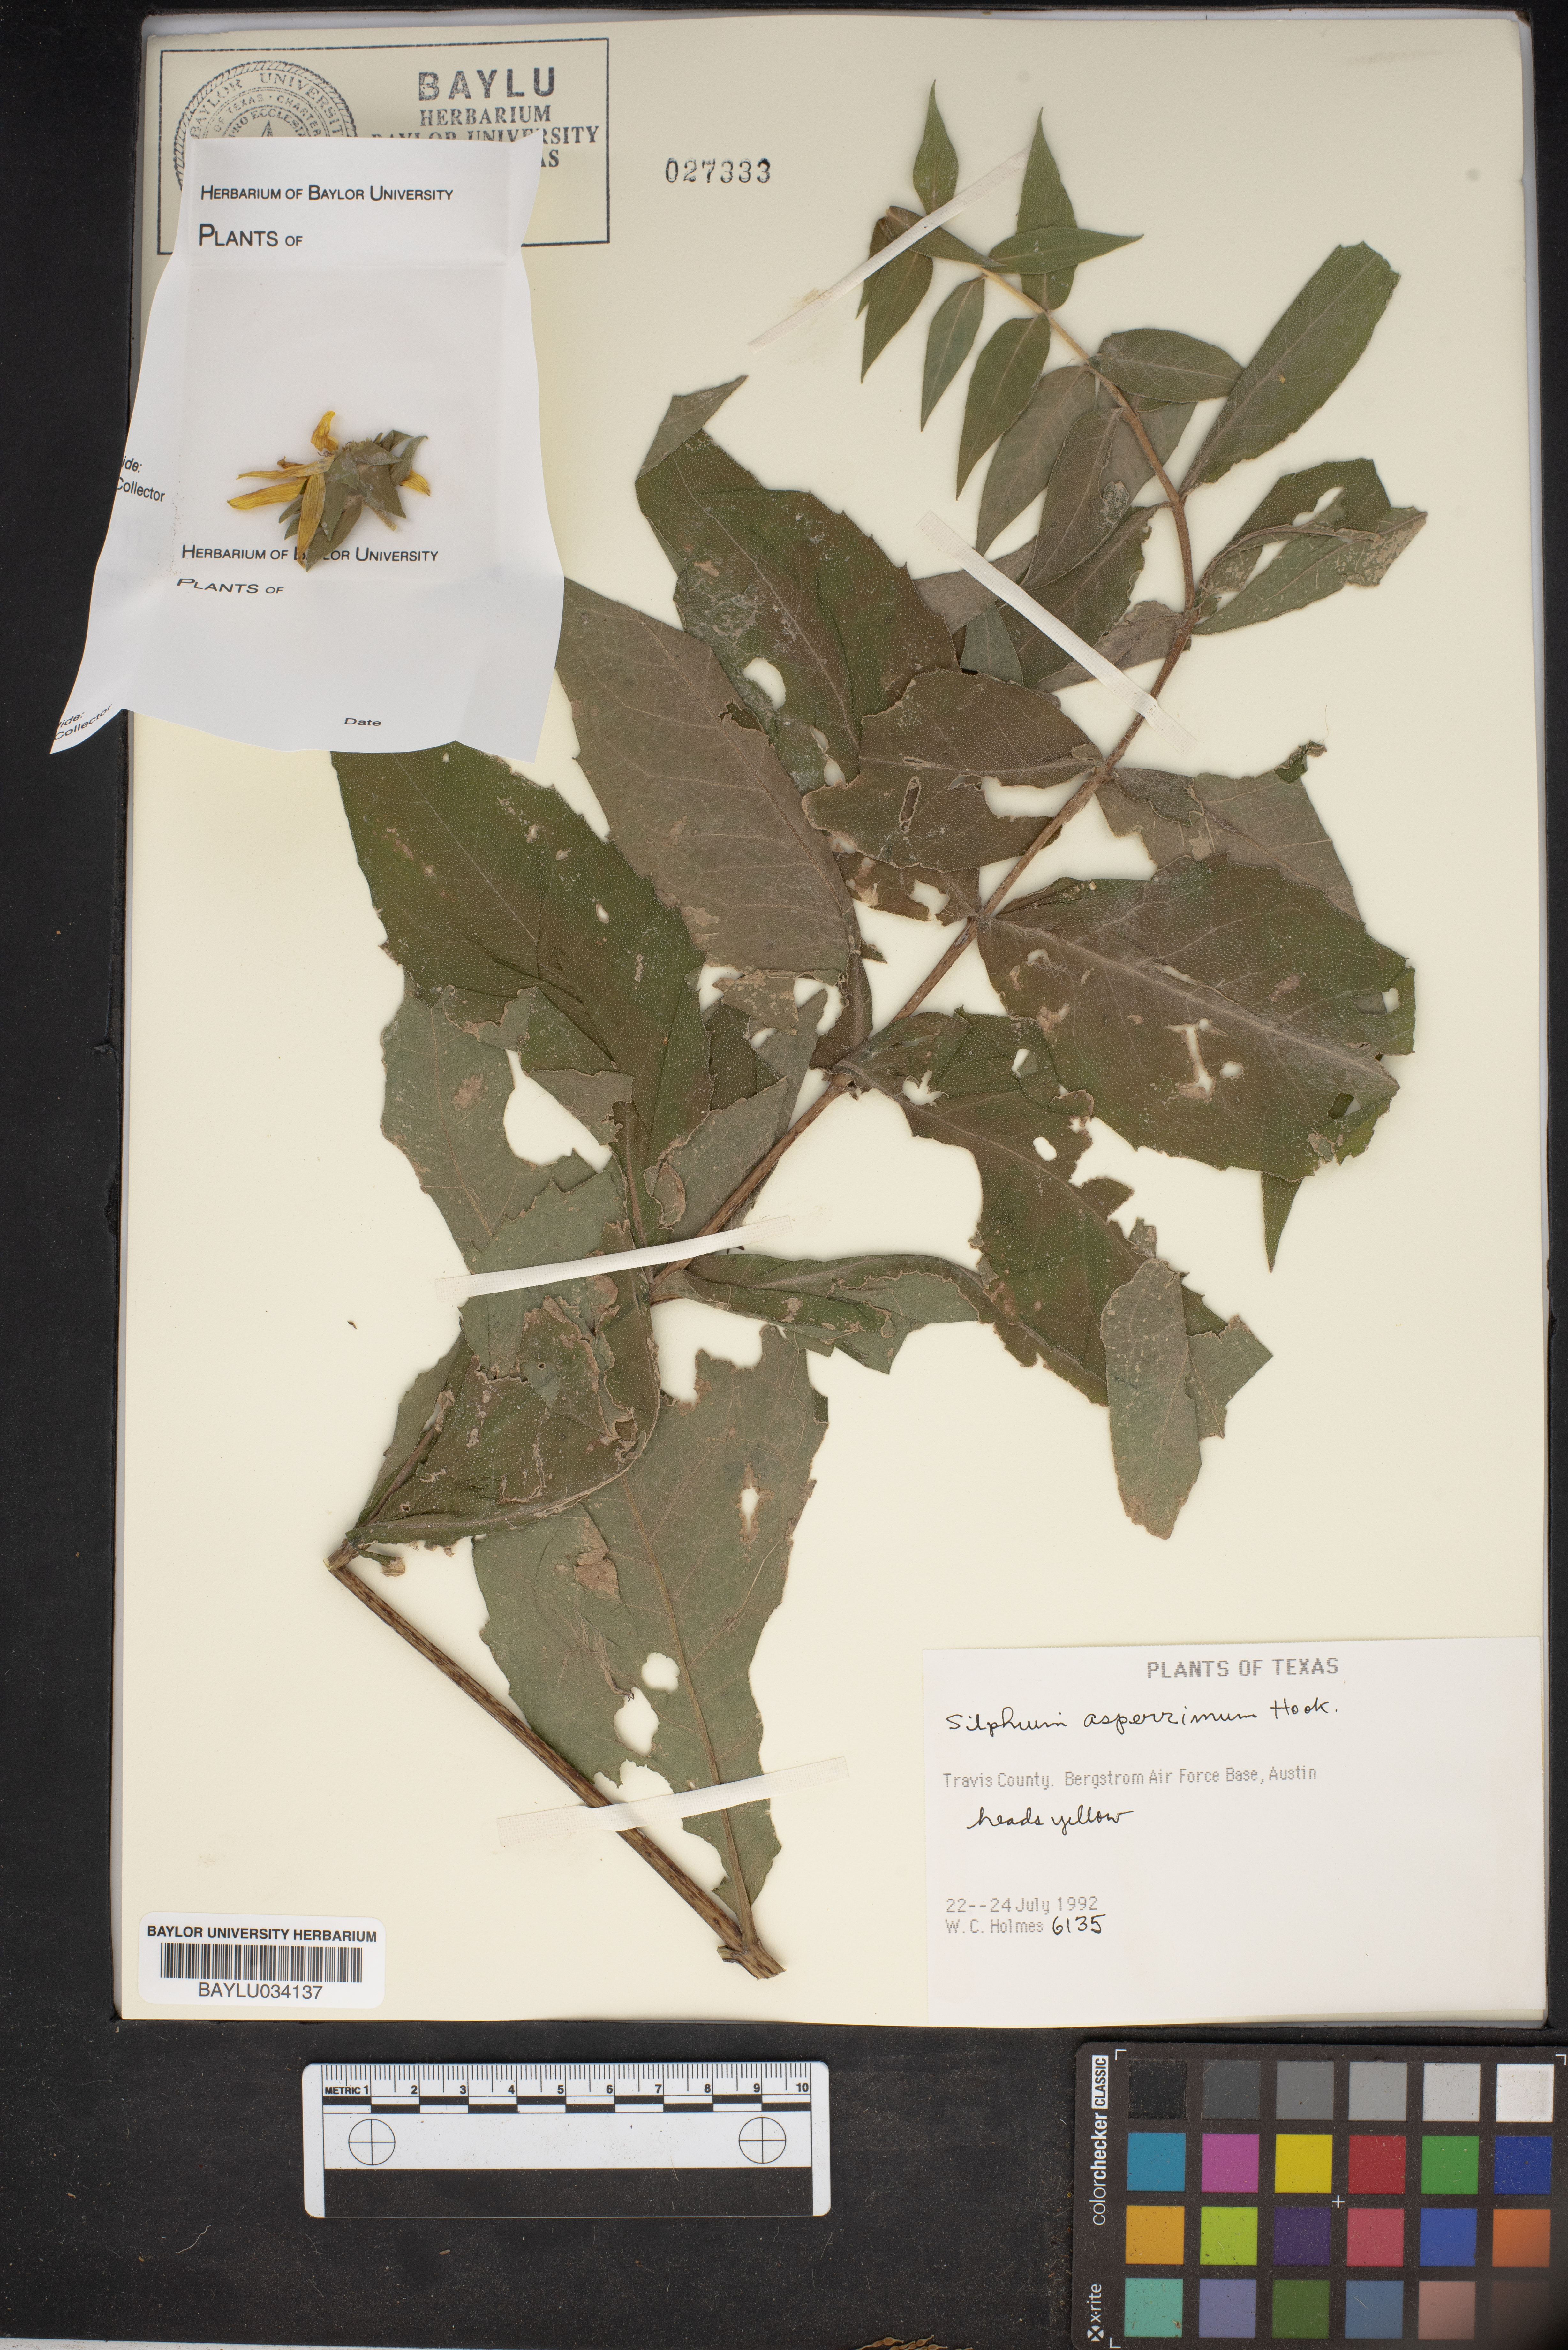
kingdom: Plantae
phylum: Tracheophyta
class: Magnoliopsida
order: Asterales
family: Asteraceae
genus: Silphium
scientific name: Silphium asperrimum
